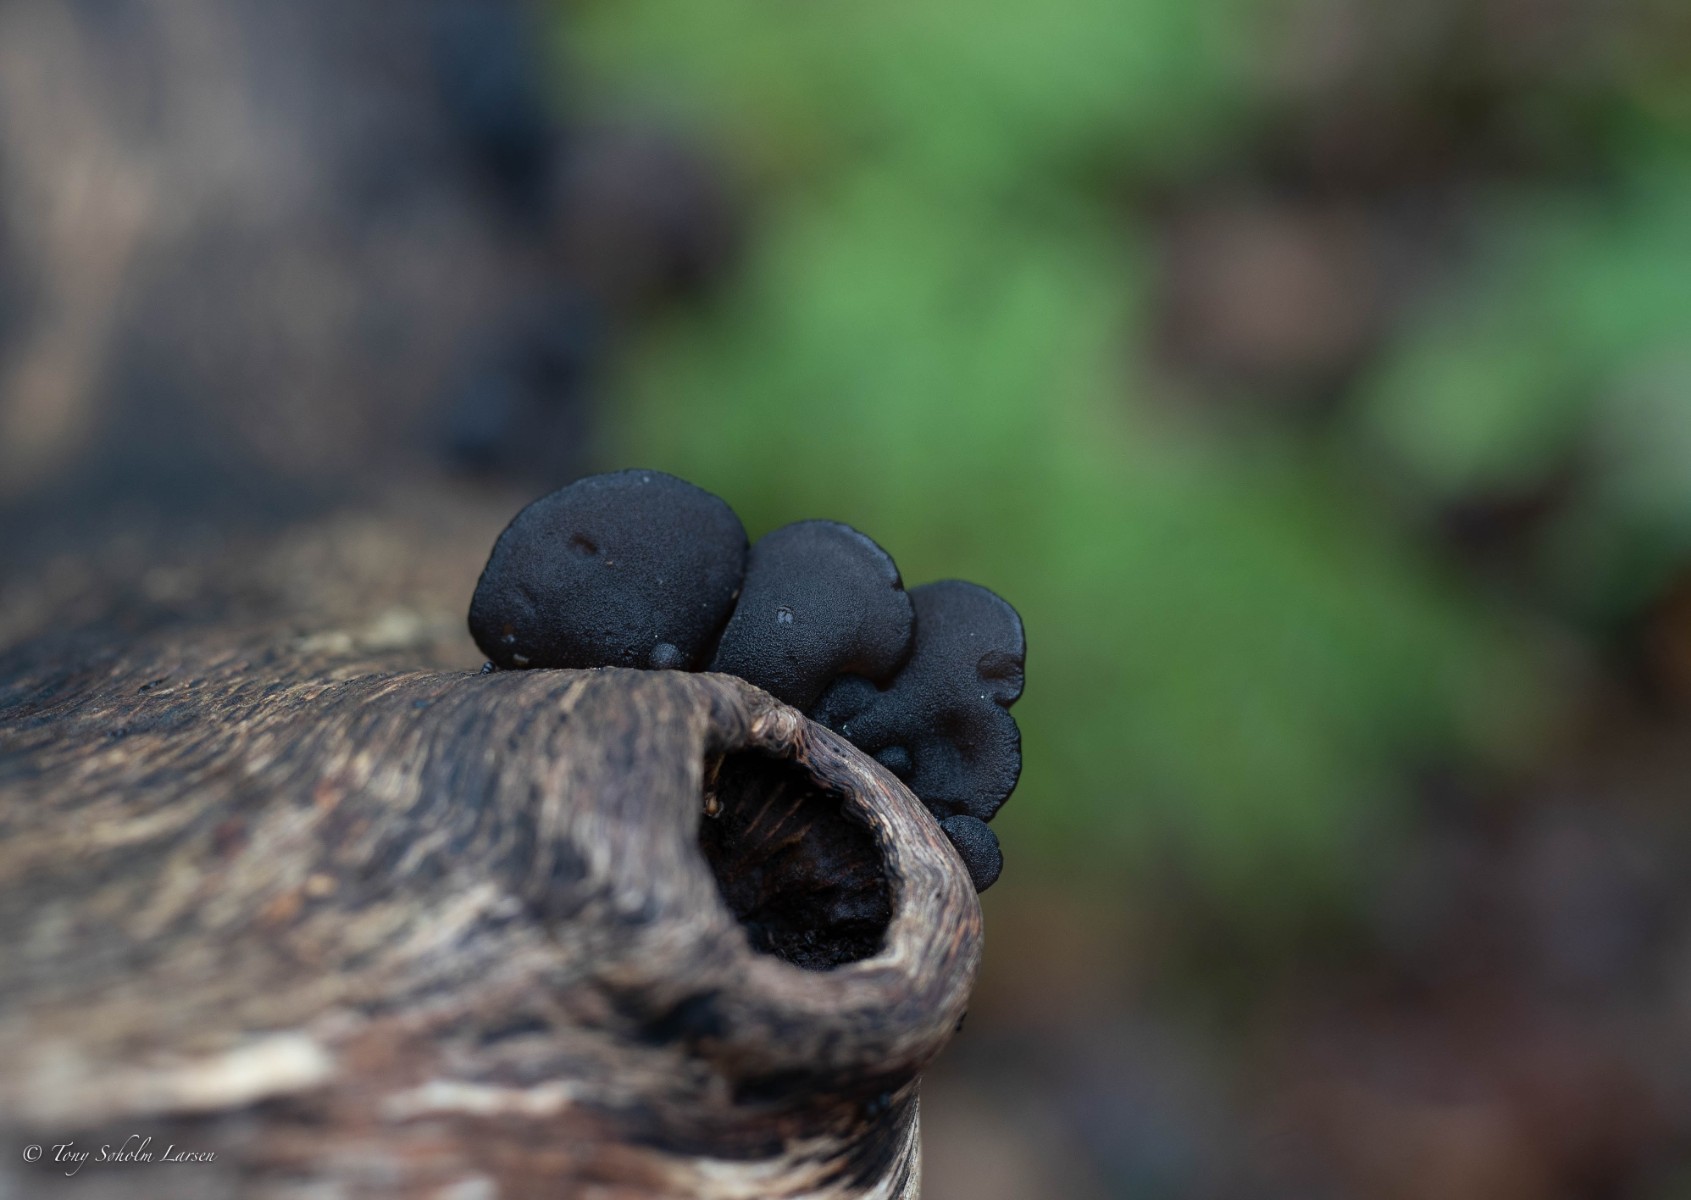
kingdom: Fungi
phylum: Basidiomycota
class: Agaricomycetes
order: Auriculariales
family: Auriculariaceae
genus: Exidia
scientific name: Exidia glandulosa
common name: ege-bævretop
